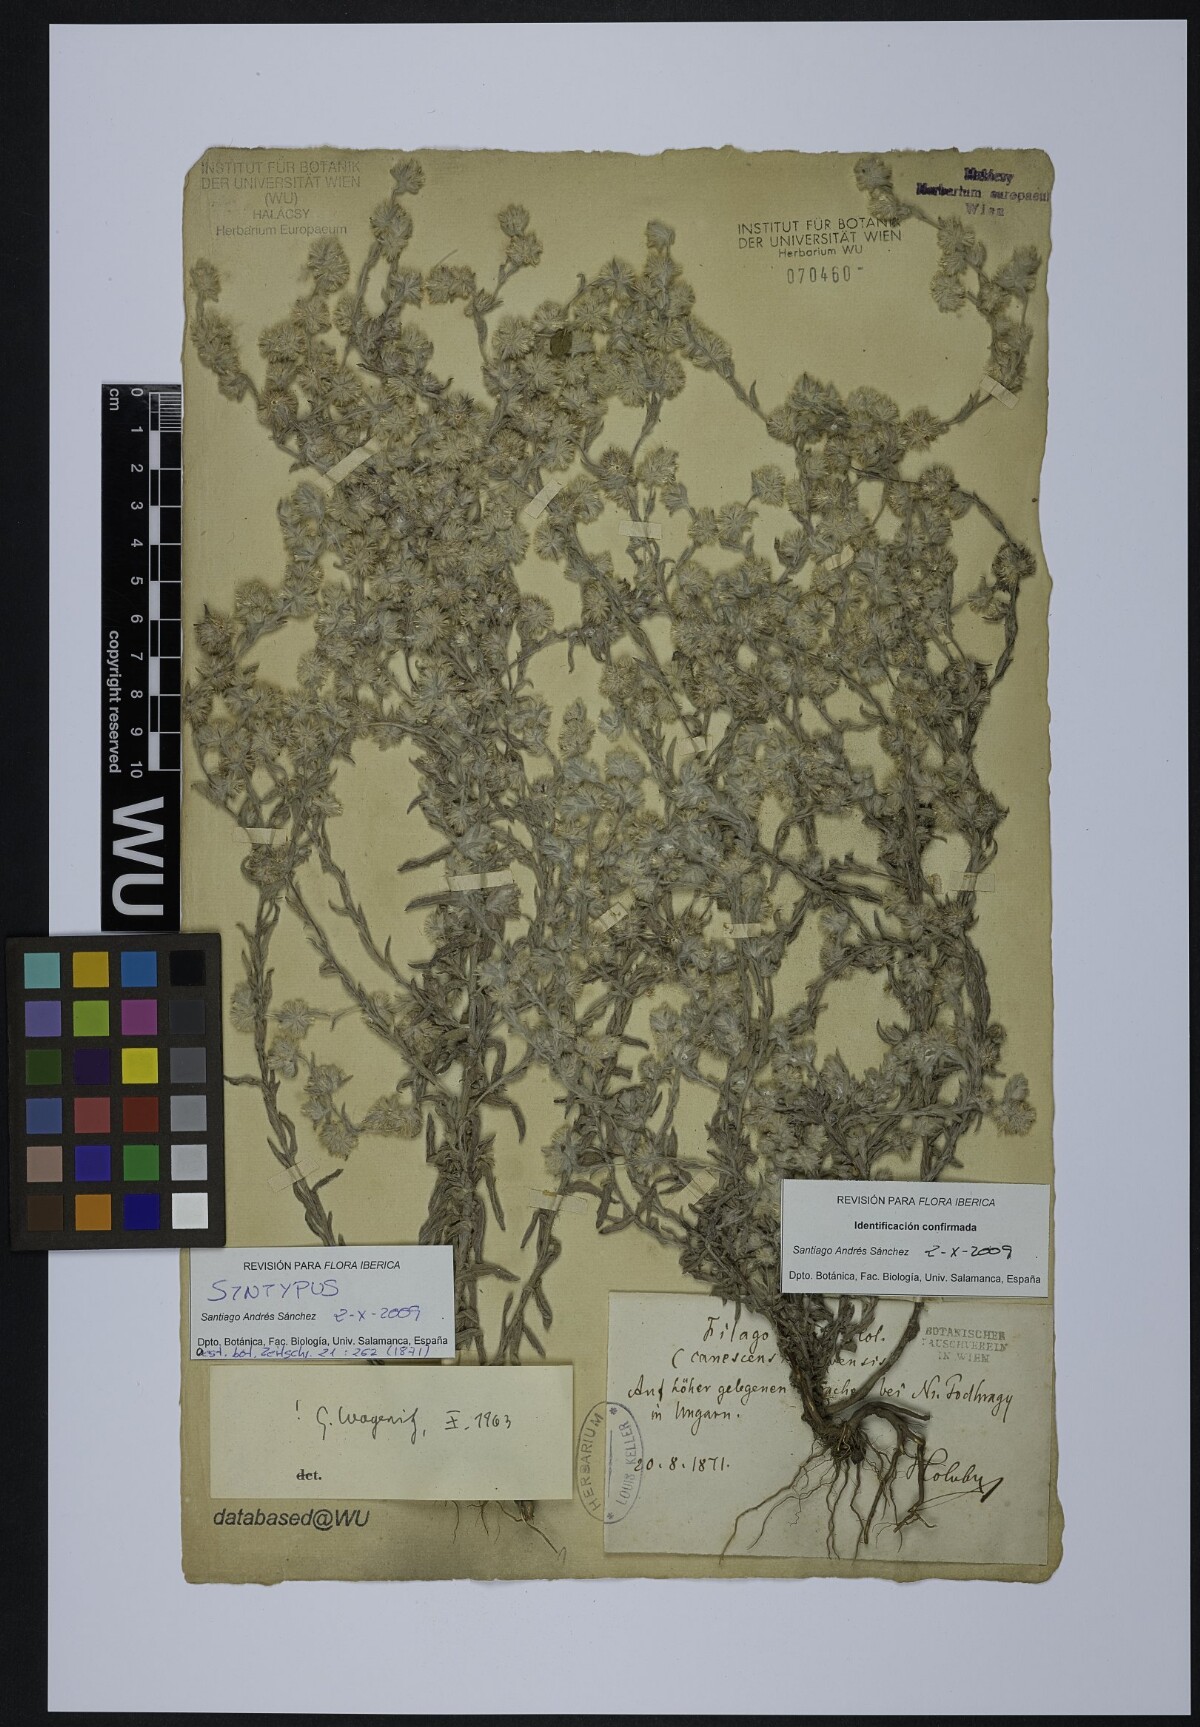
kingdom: Plantae
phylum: Tracheophyta
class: Magnoliopsida
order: Asterales
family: Asteraceae
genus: Filago
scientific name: Filago mixta
